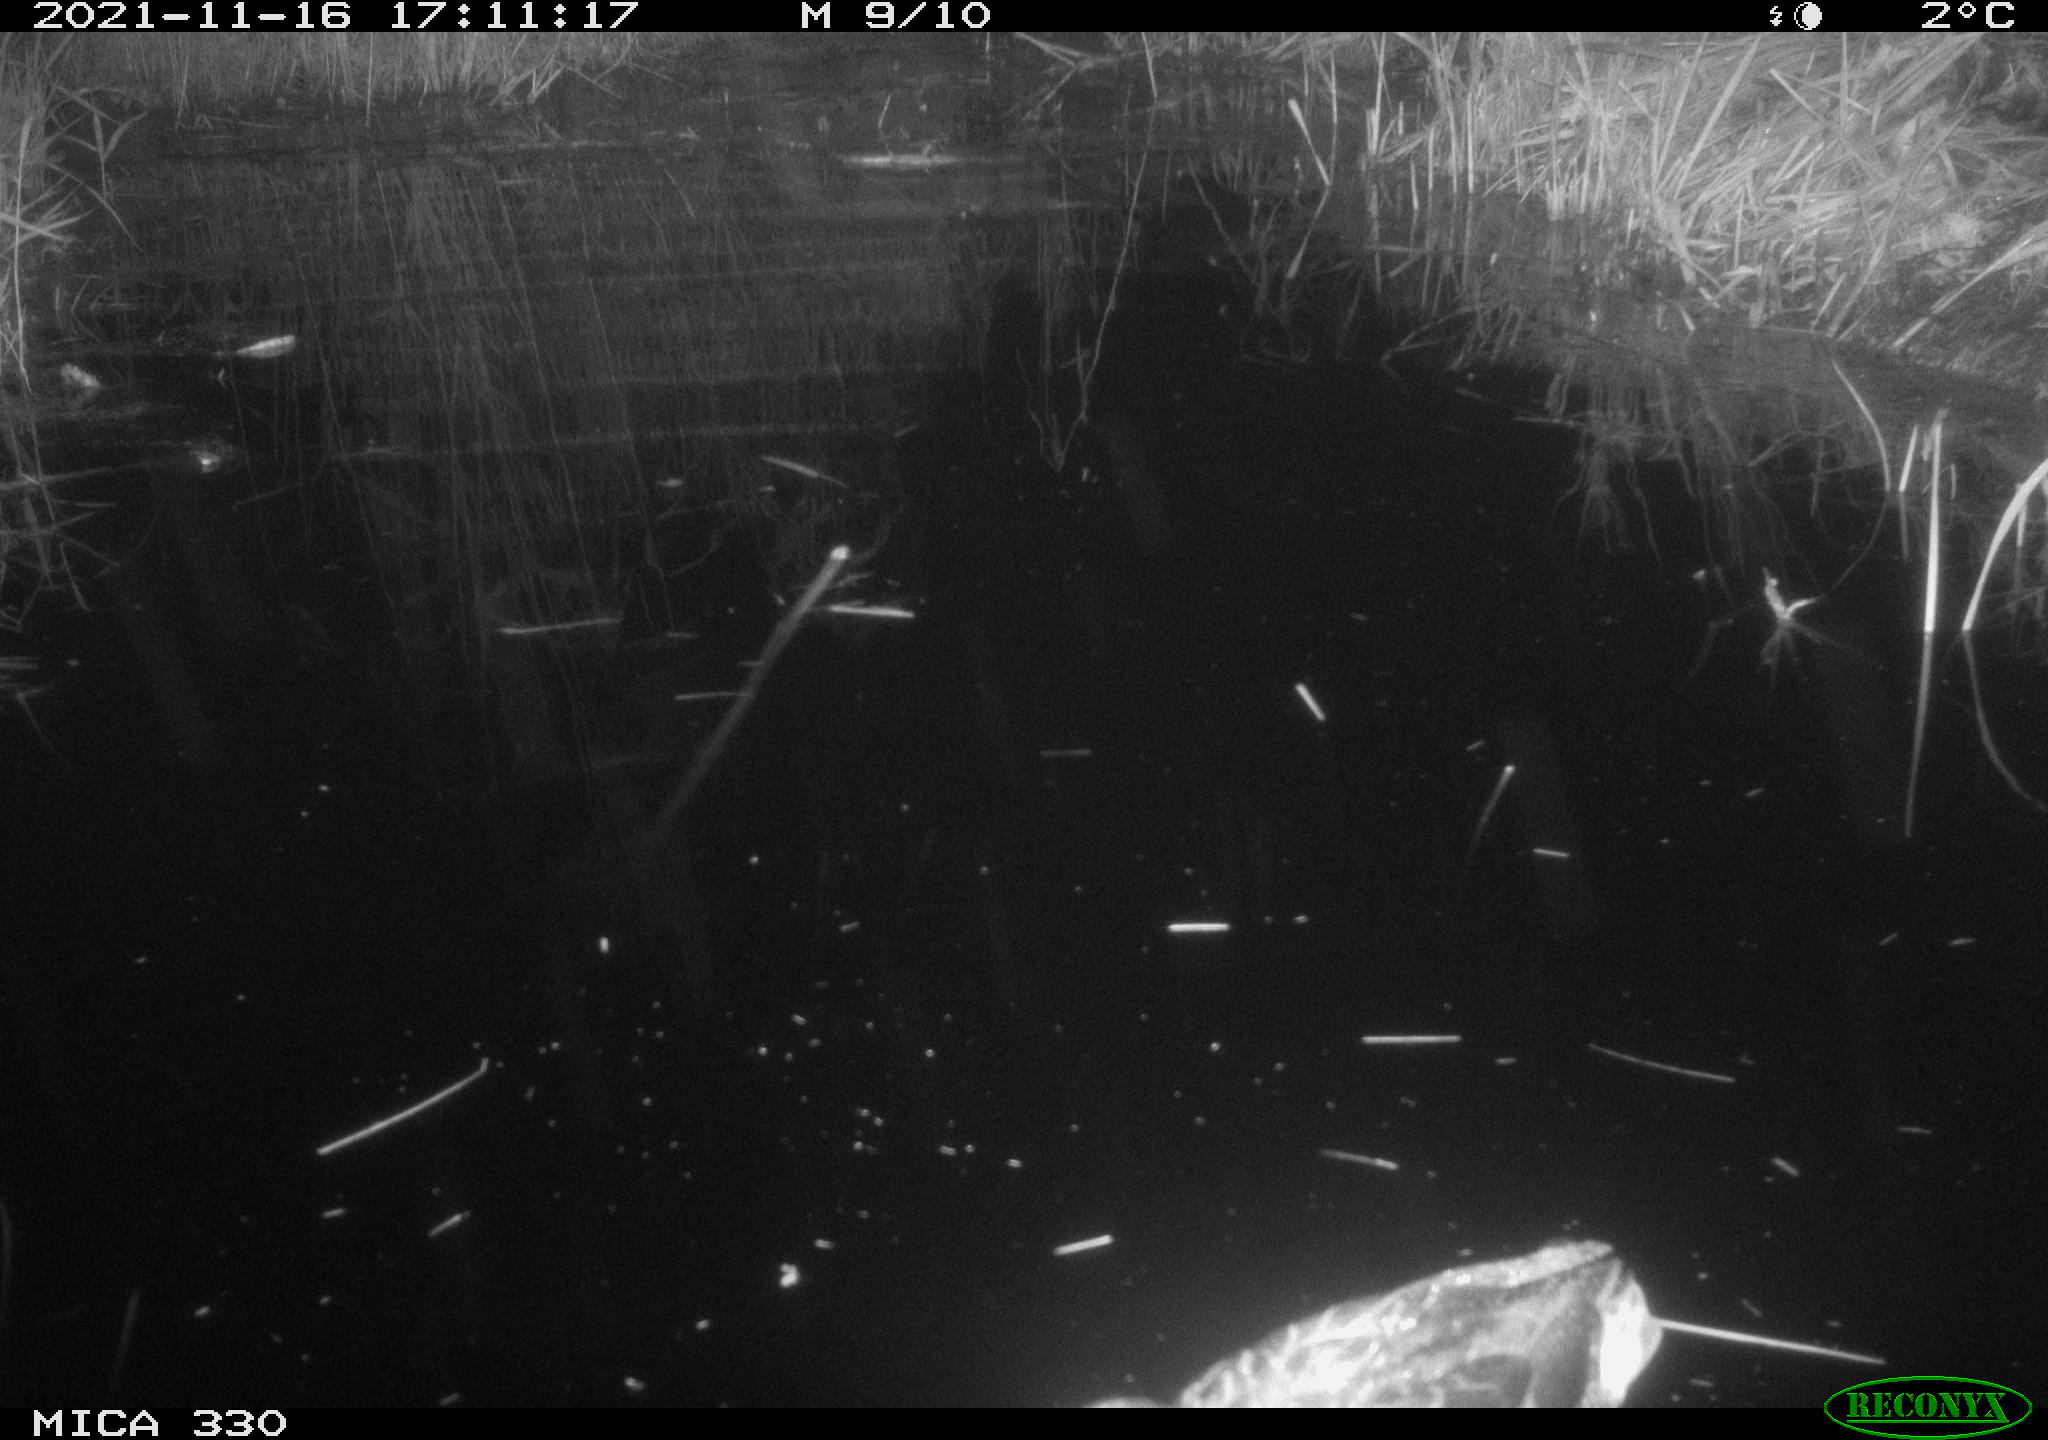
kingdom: Animalia
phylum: Chordata
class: Aves
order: Anseriformes
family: Anatidae
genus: Anas
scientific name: Anas platyrhynchos
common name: Mallard
